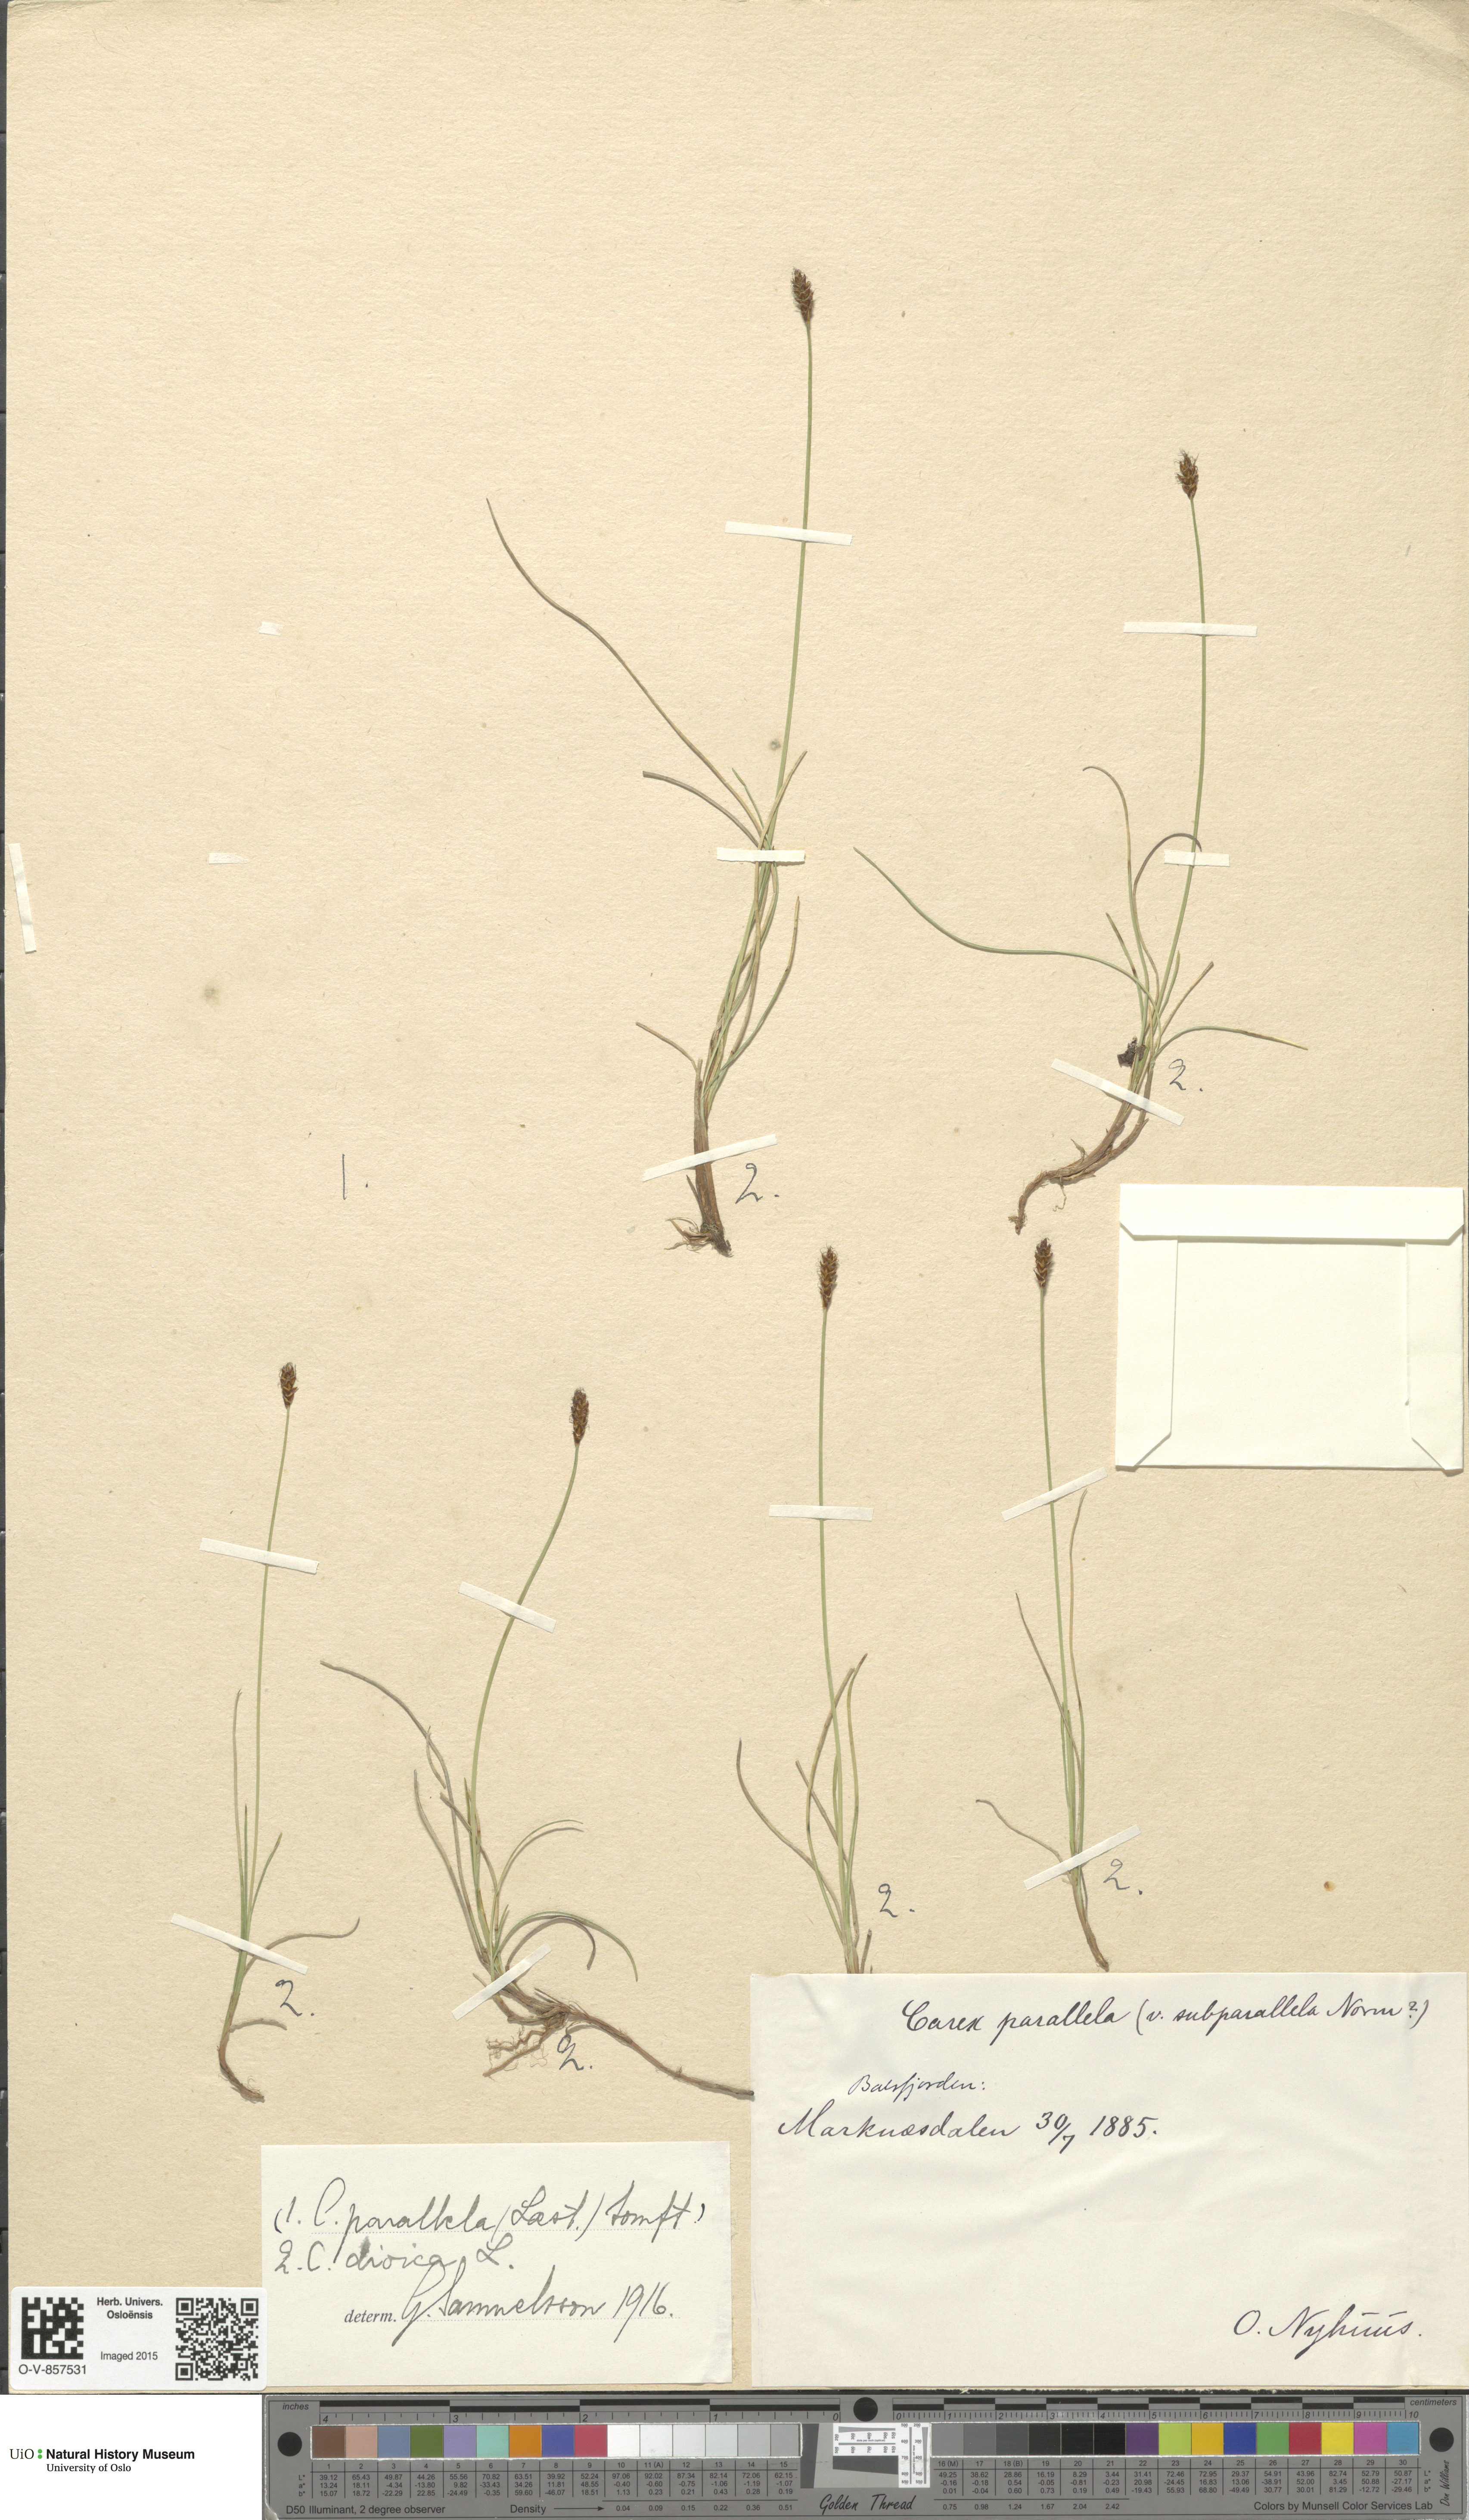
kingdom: Plantae
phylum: Tracheophyta
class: Liliopsida
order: Poales
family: Cyperaceae
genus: Carex
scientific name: Carex dioica
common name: Dioecious sedge
